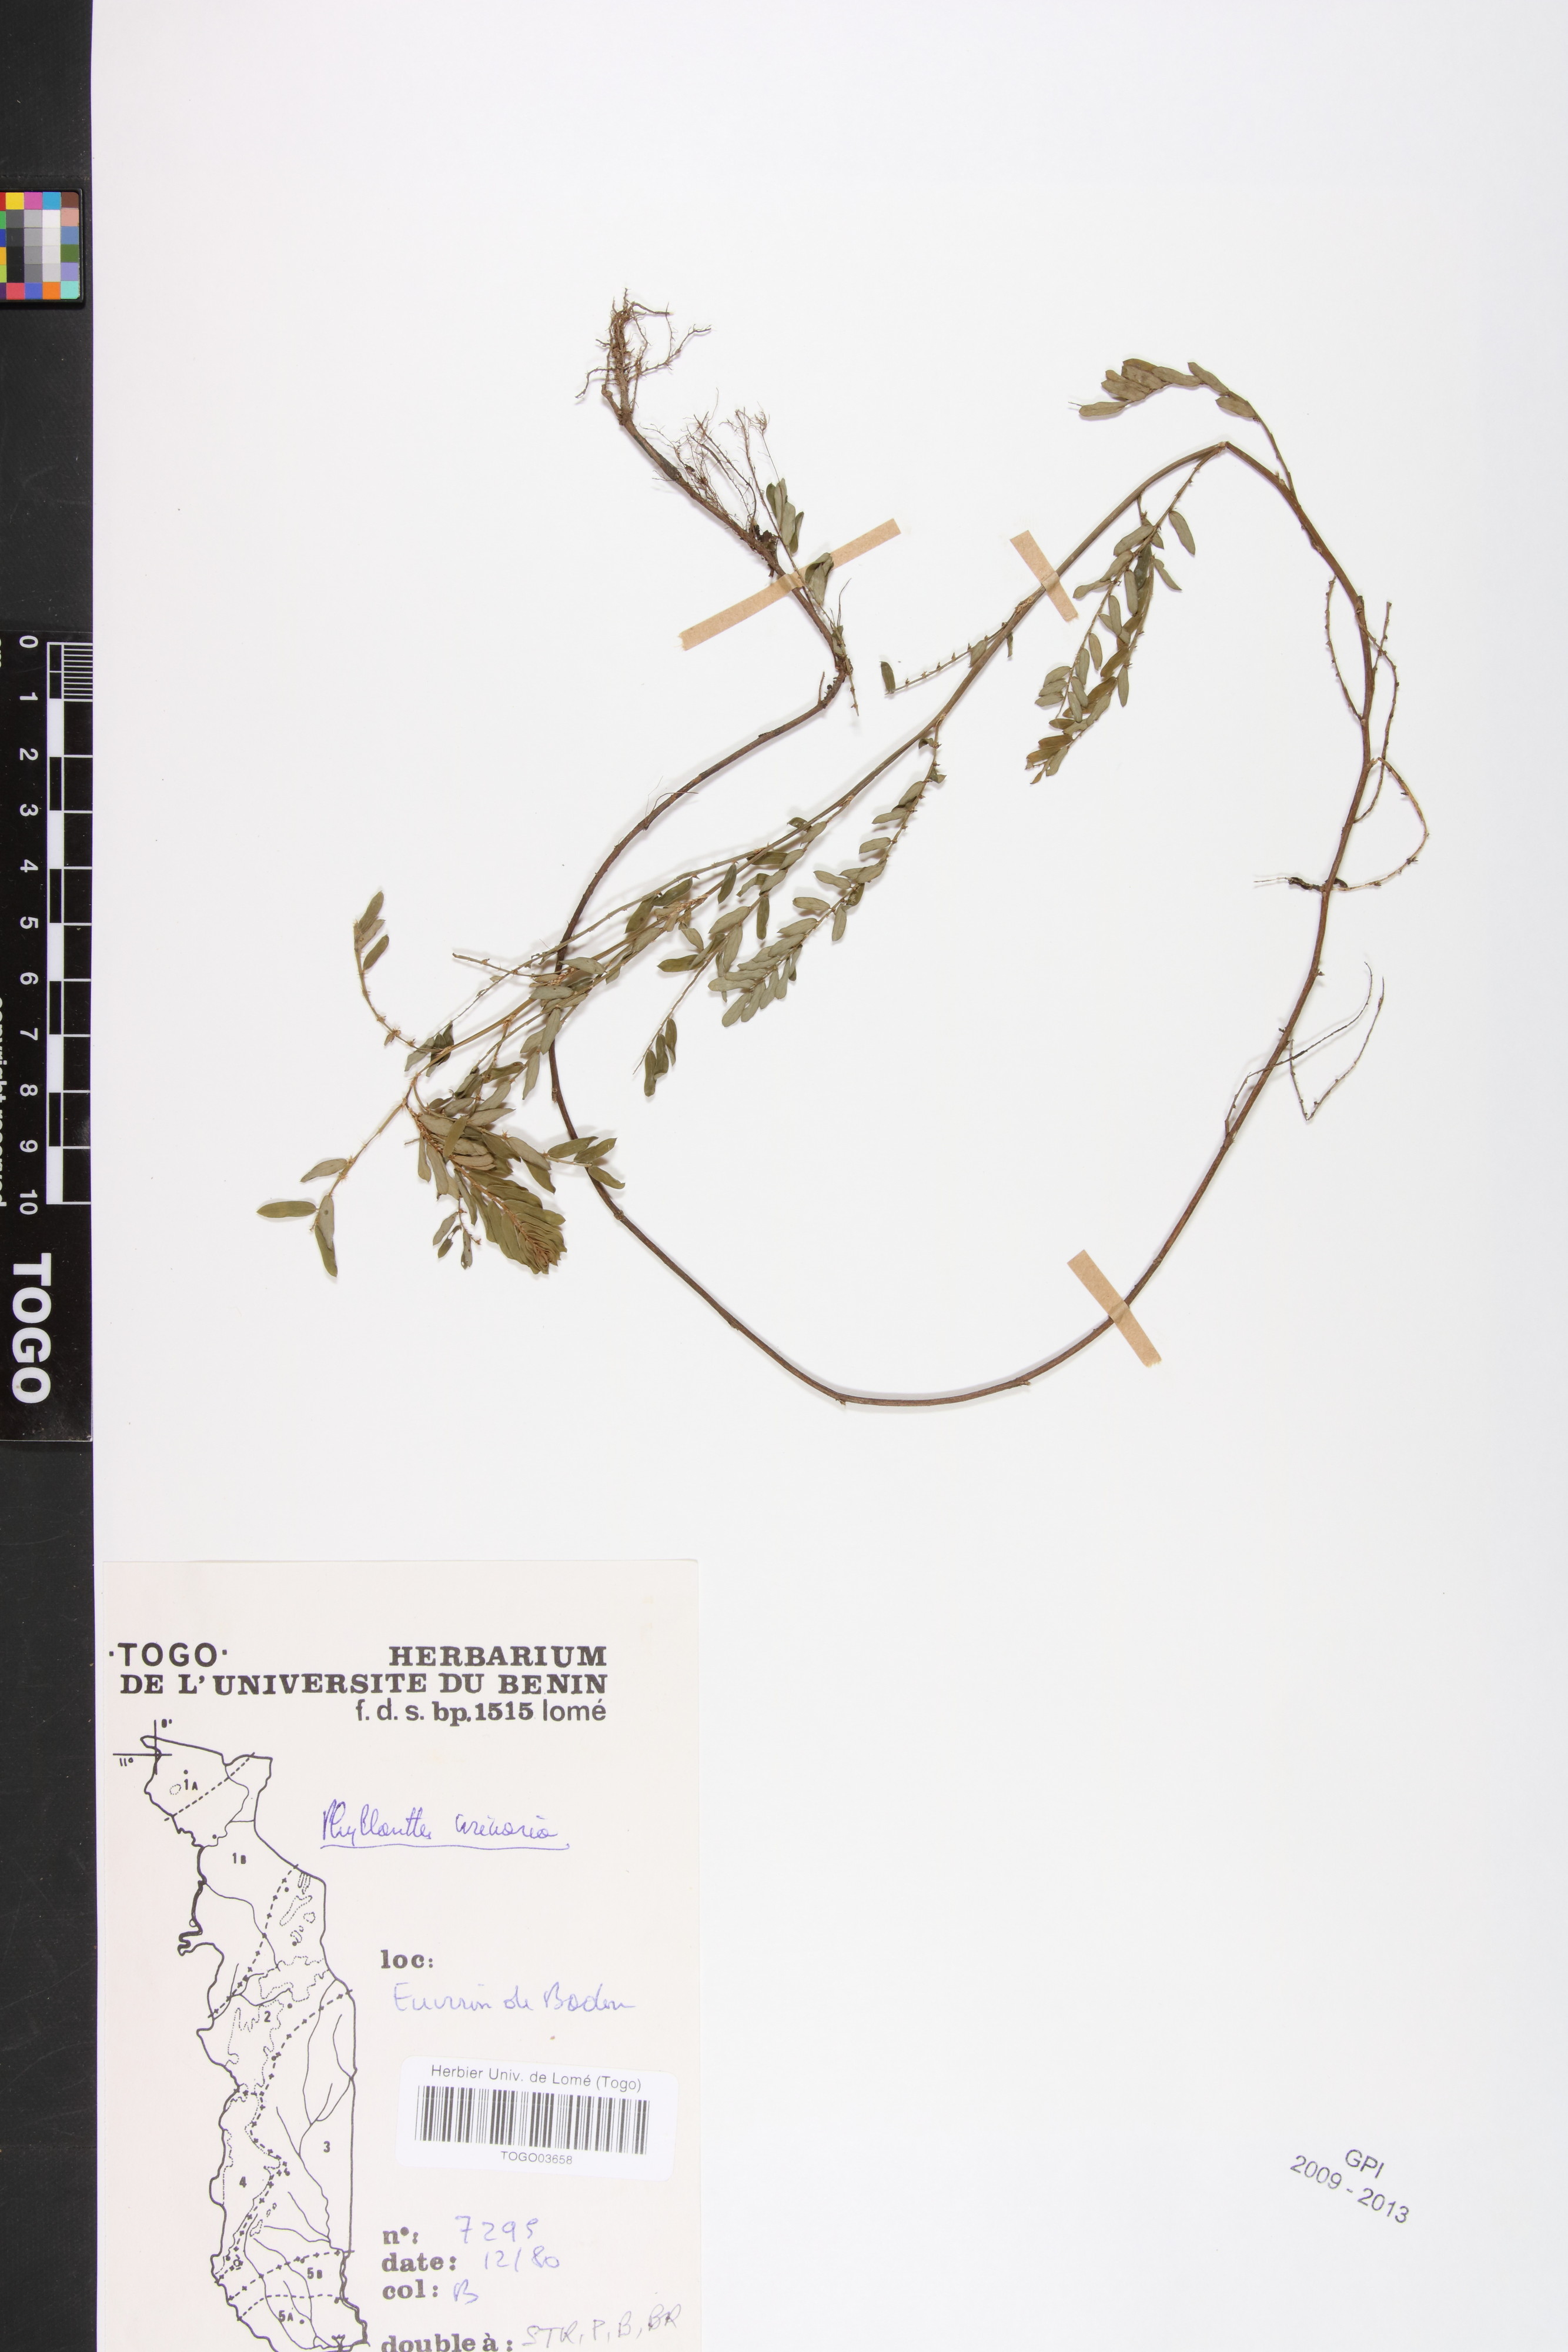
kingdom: Plantae
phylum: Tracheophyta
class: Magnoliopsida
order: Malpighiales
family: Phyllanthaceae
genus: Phyllanthus
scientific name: Phyllanthus urinaria
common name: Chamber bitter
